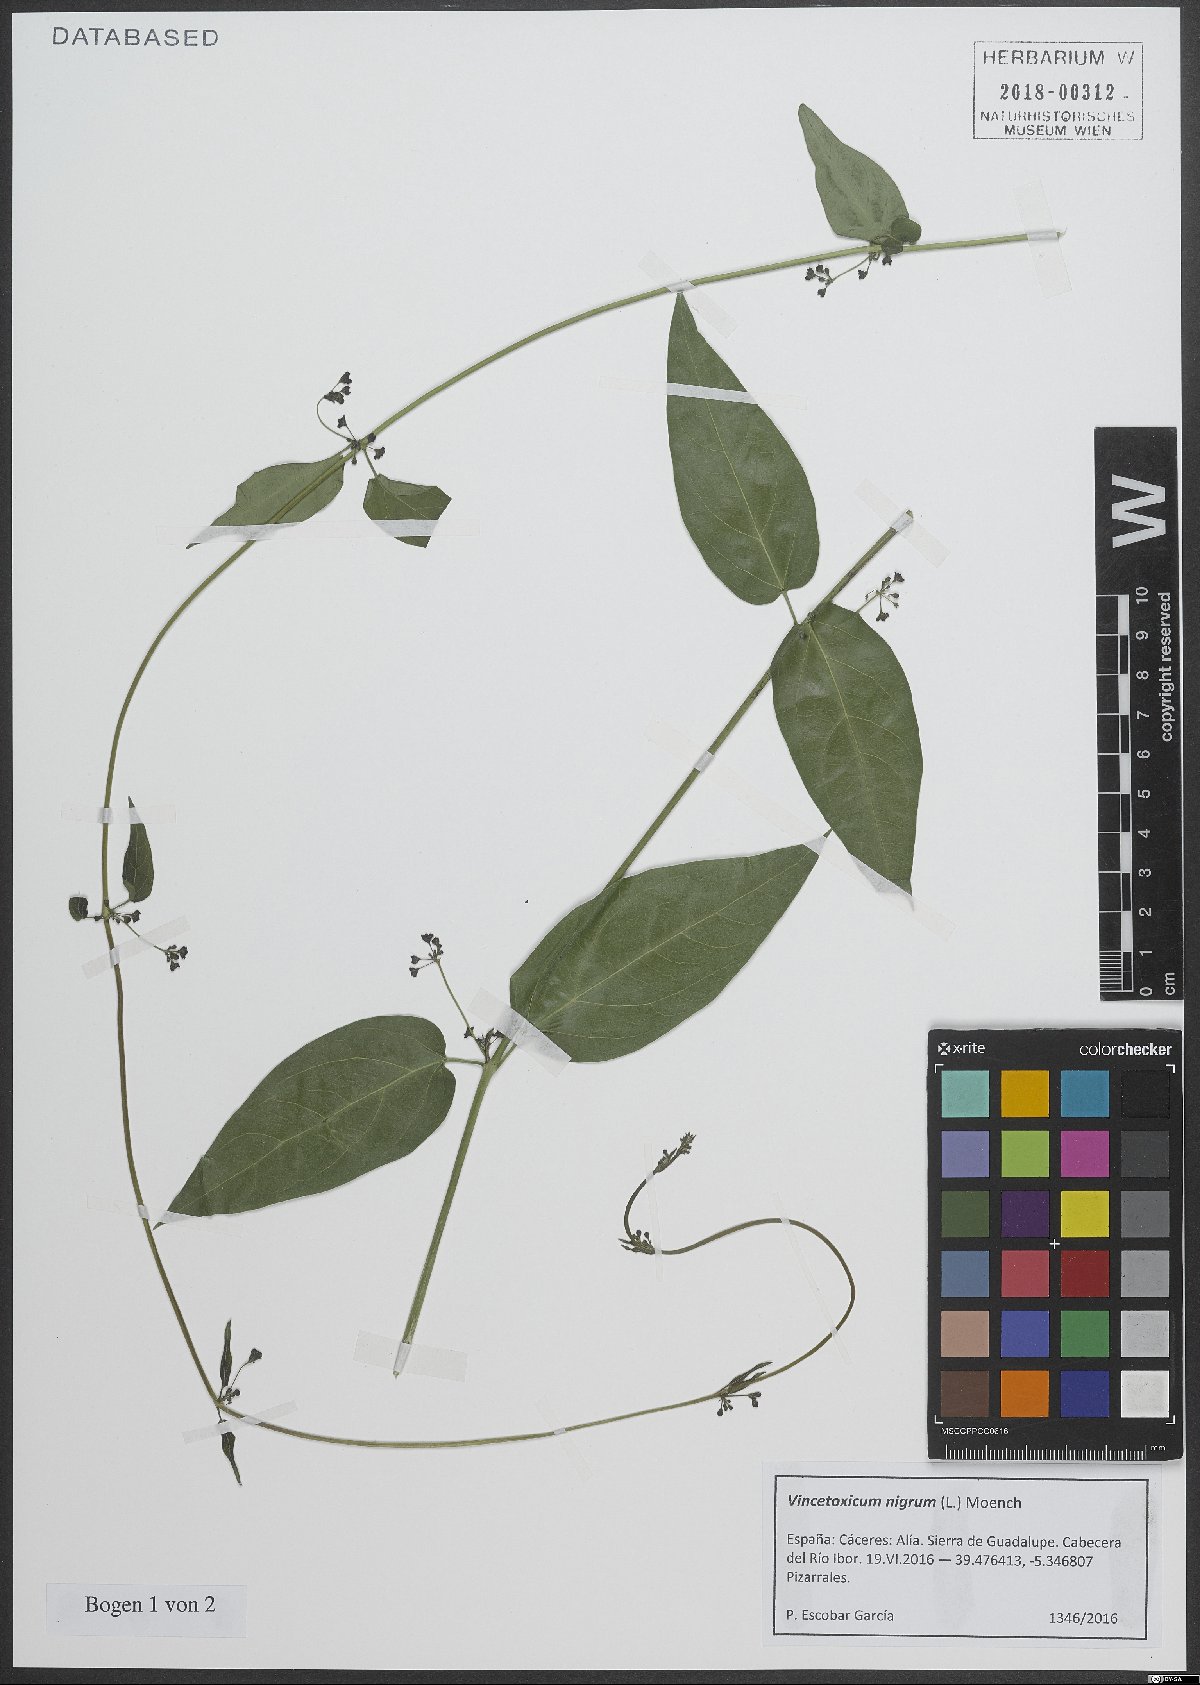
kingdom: Plantae
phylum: Tracheophyta
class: Magnoliopsida
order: Gentianales
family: Apocynaceae
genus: Vincetoxicum
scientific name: Vincetoxicum nigrum
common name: Black swallow-wort
